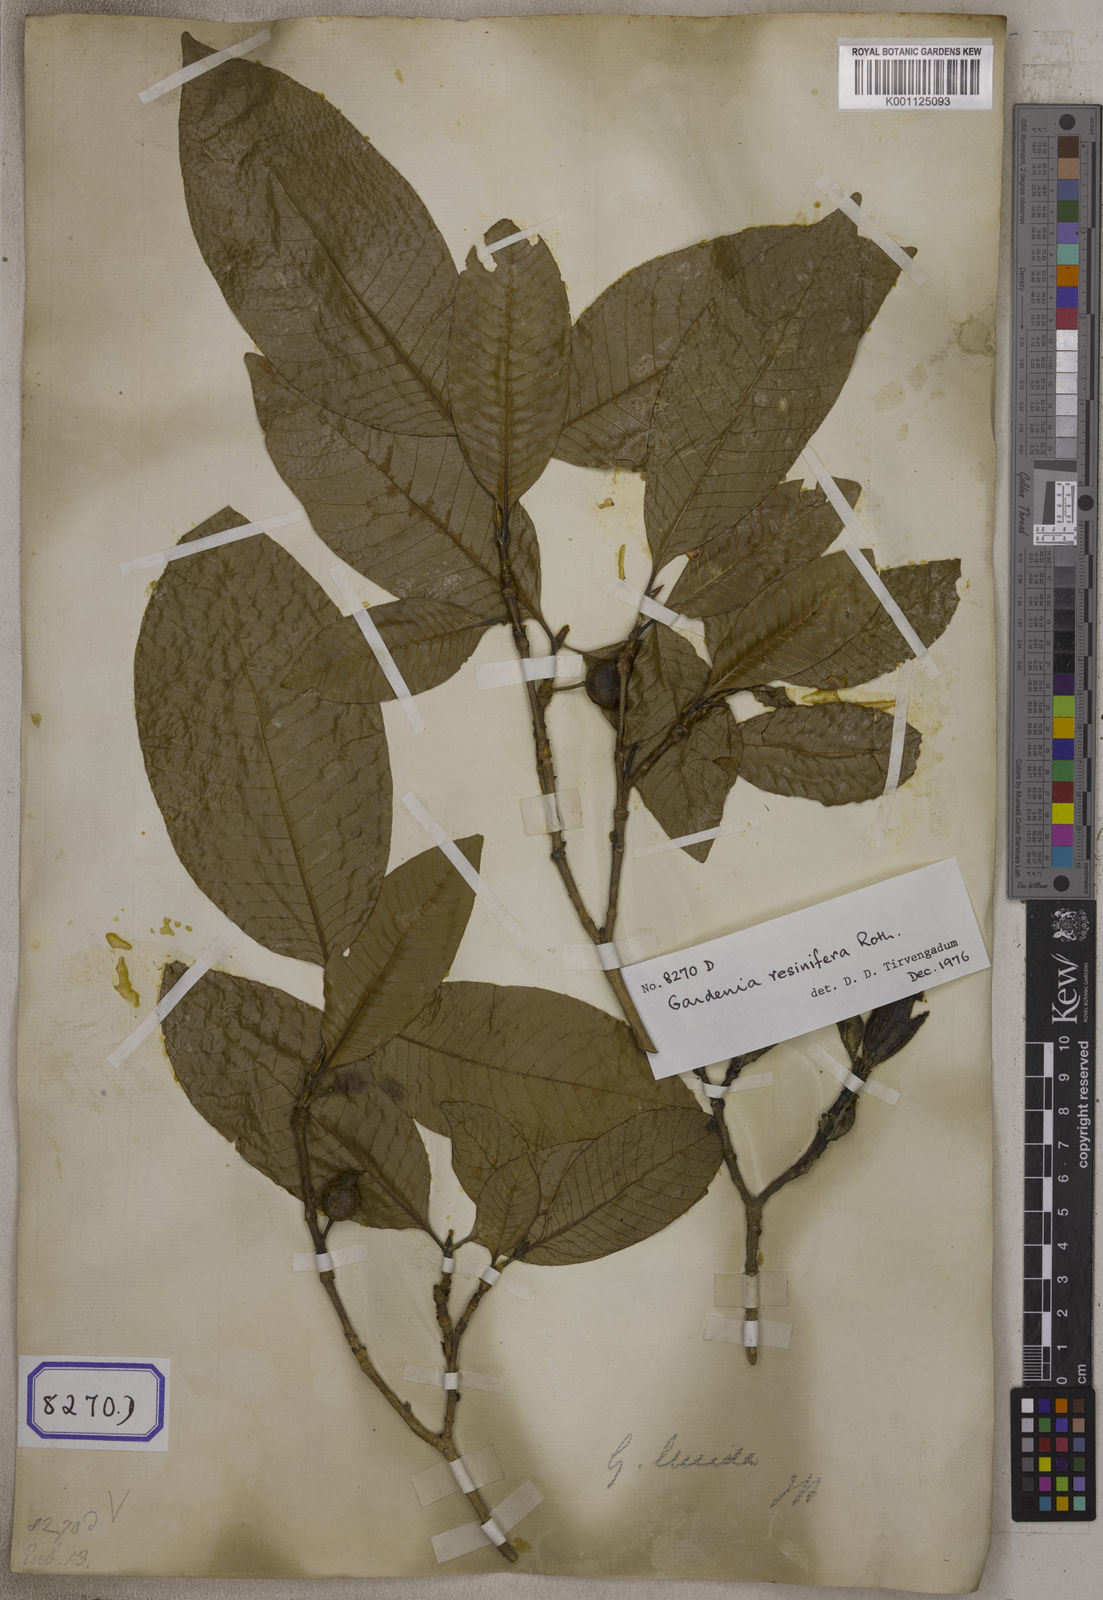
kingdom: Plantae
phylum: Tracheophyta
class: Magnoliopsida
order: Gentianales
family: Rubiaceae
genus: Gardenia
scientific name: Gardenia resinifera
